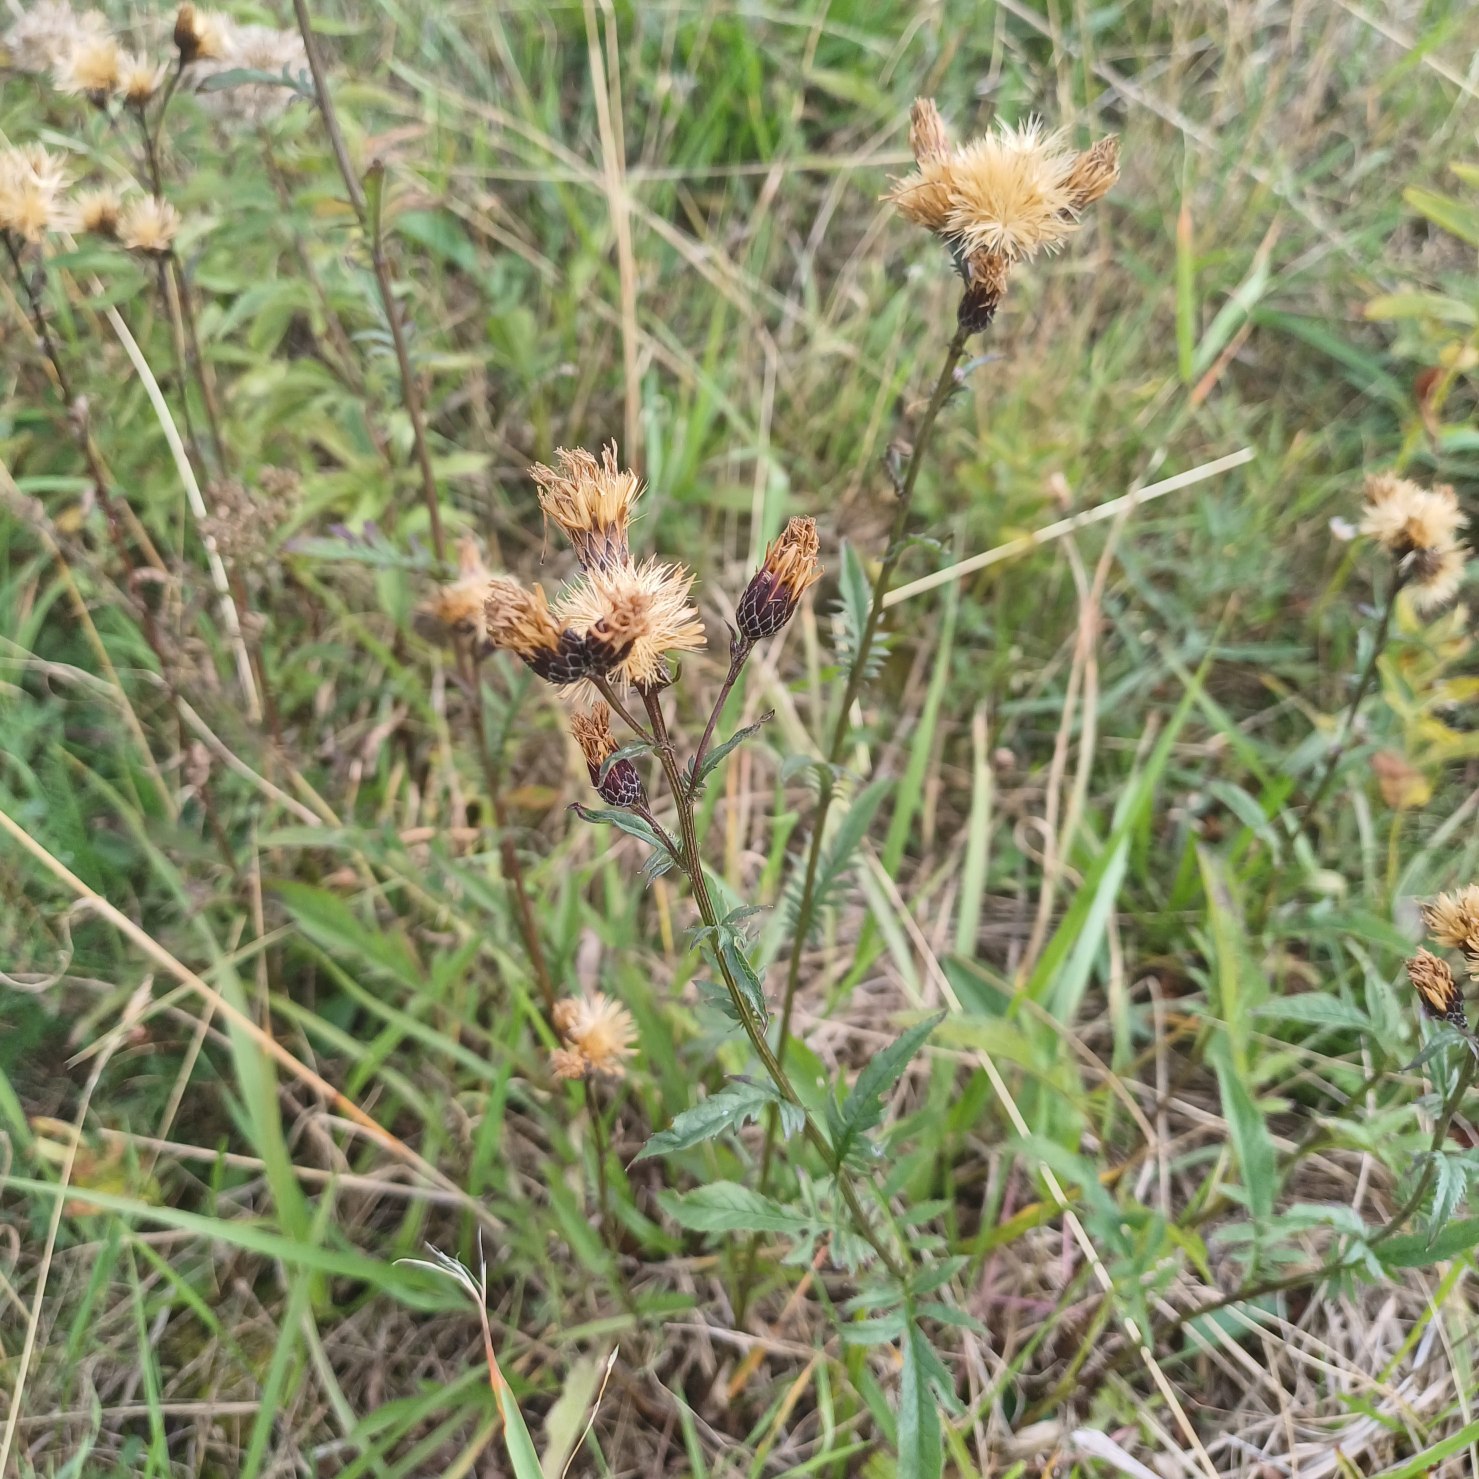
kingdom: Plantae
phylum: Tracheophyta
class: Magnoliopsida
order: Asterales
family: Asteraceae
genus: Serratula
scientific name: Serratula tinctoria
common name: Eng-skær
